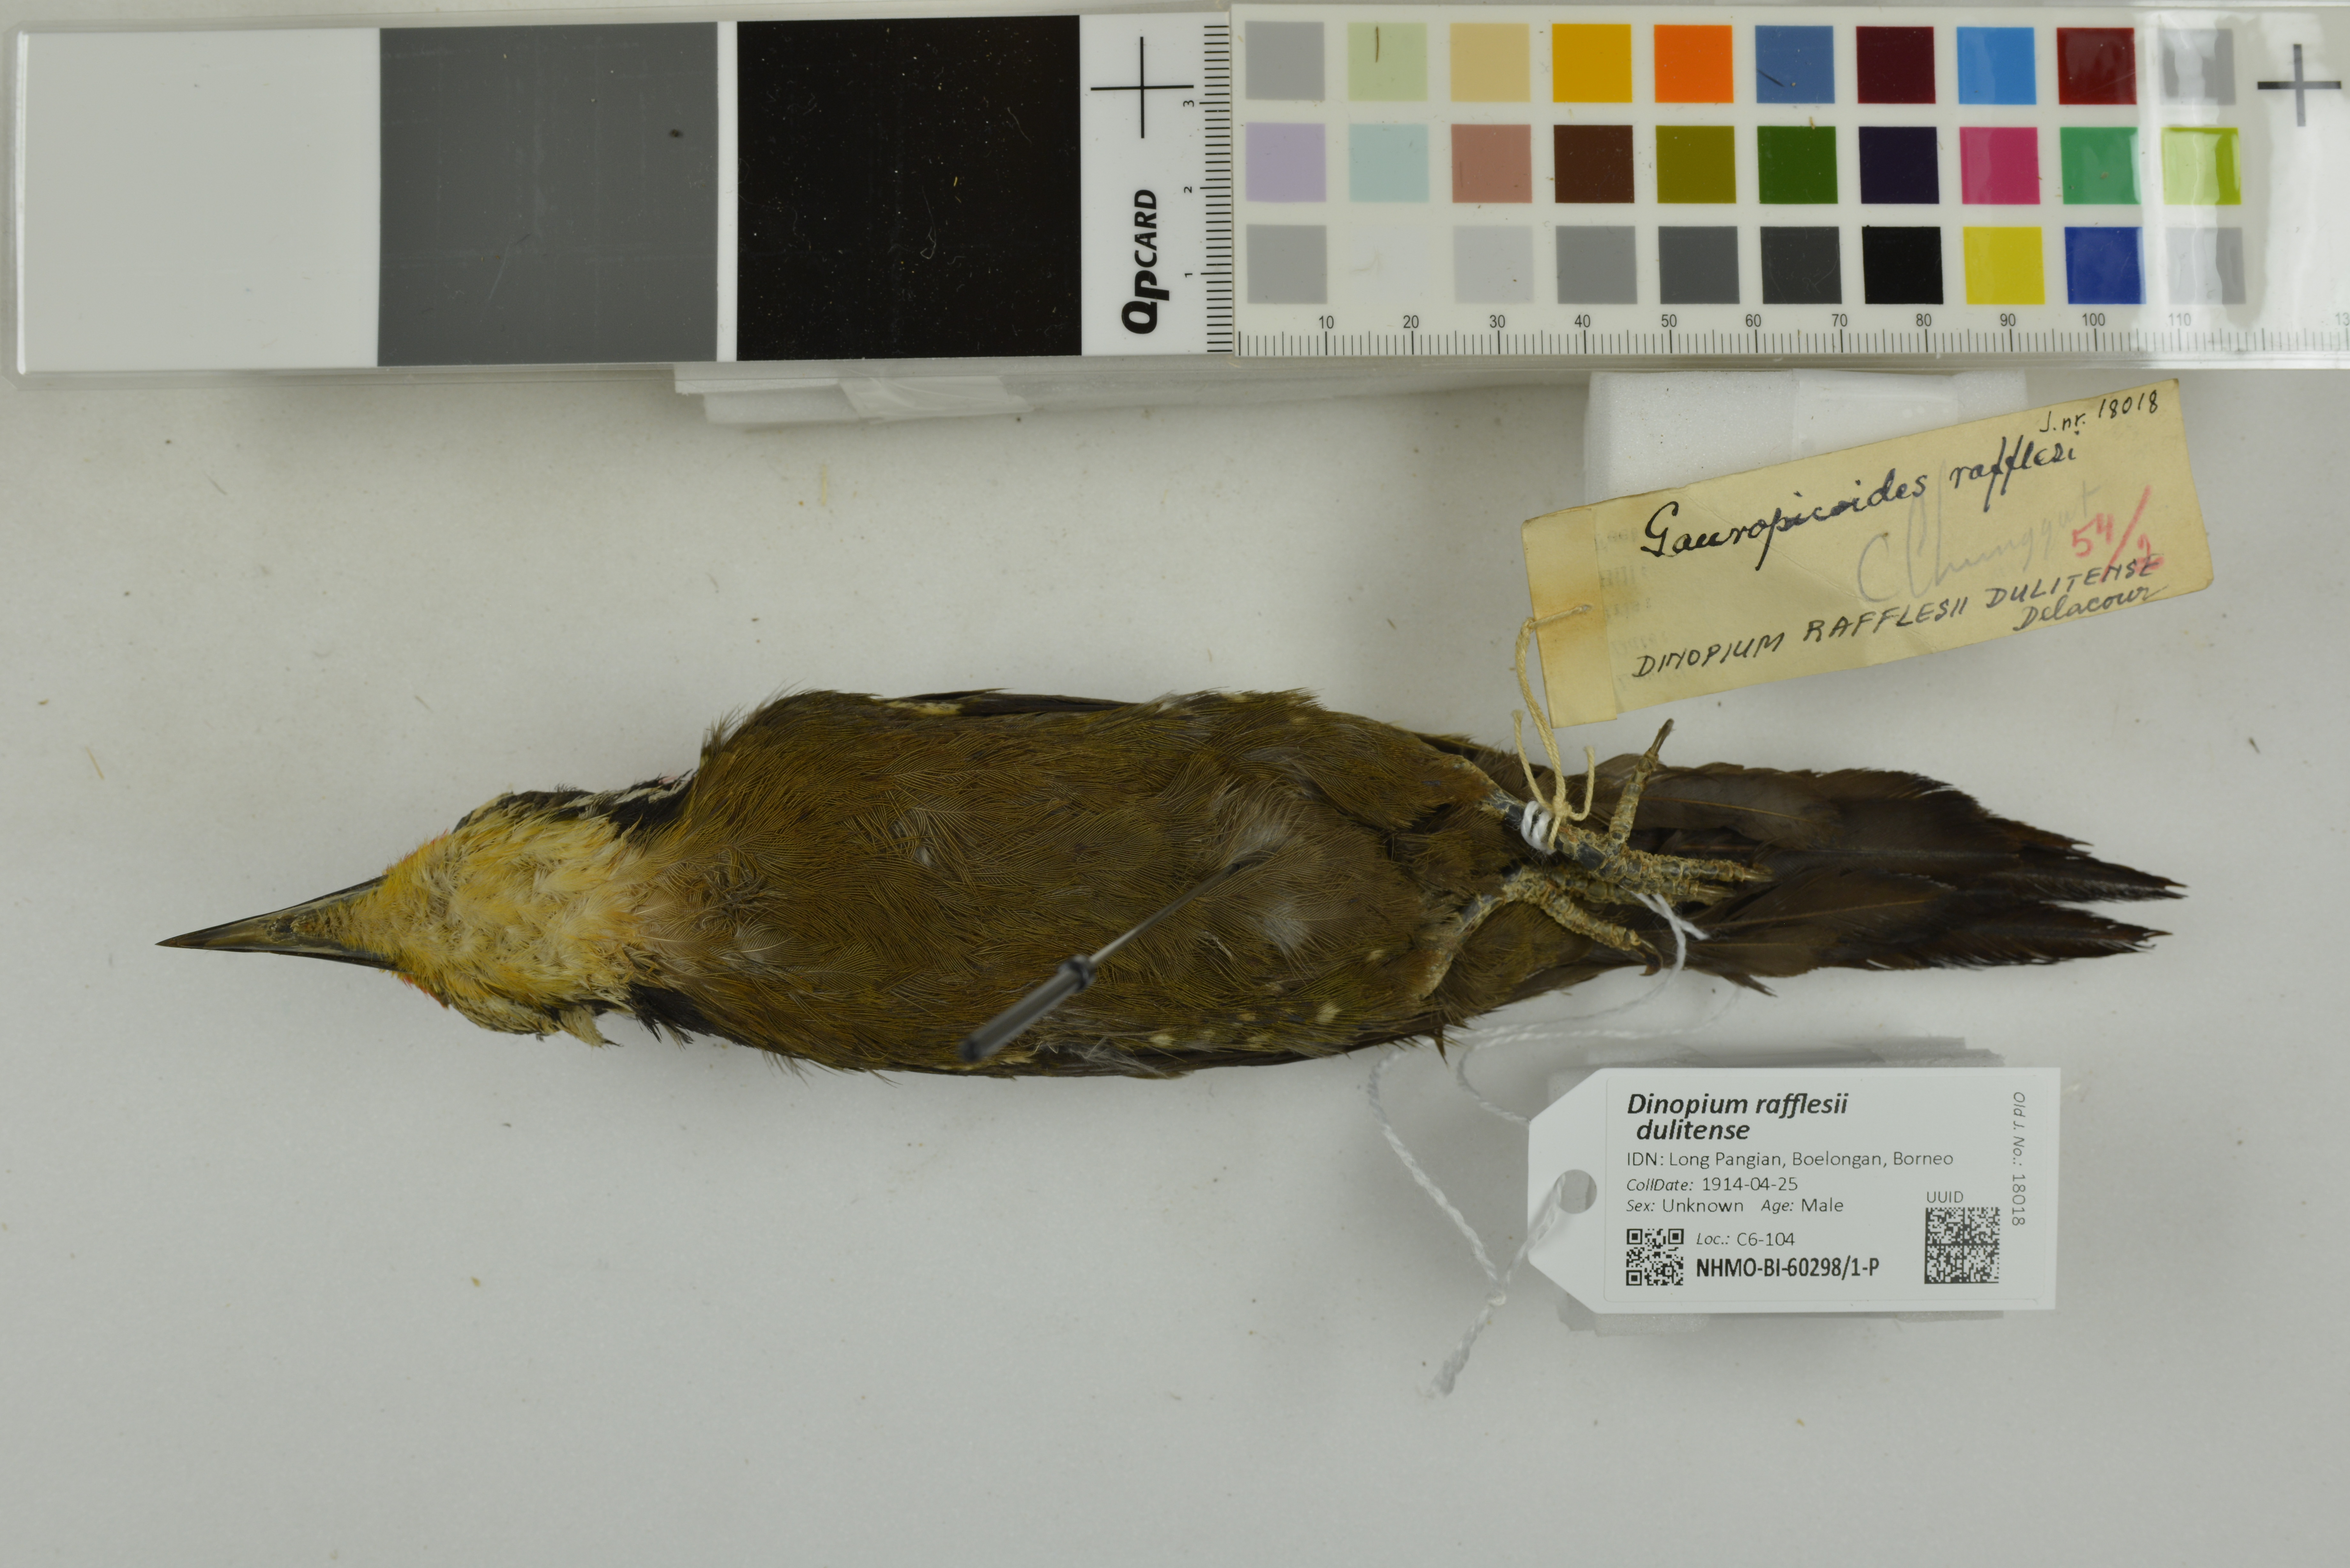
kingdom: Animalia
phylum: Chordata
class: Aves
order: Piciformes
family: Picidae
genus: Gecinulus
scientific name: Gecinulus rafflesii
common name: Olive-backed woodpecker
